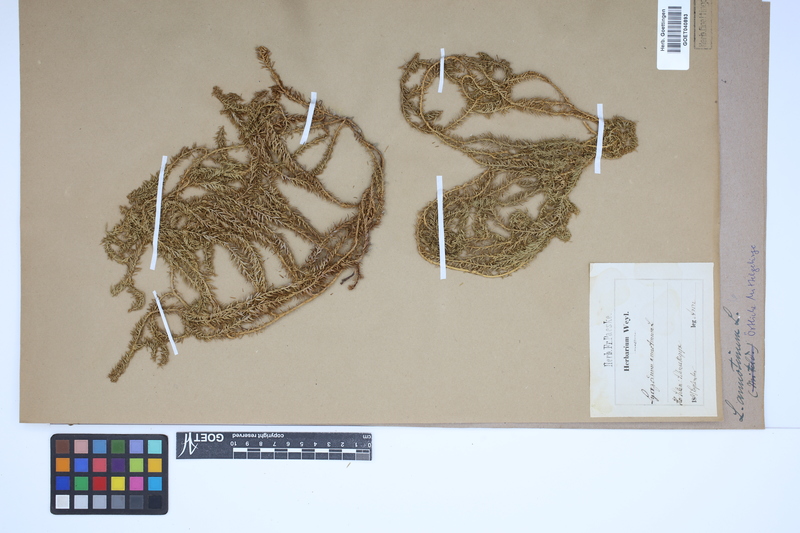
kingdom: Plantae
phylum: Tracheophyta
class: Lycopodiopsida
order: Lycopodiales
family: Lycopodiaceae
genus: Spinulum
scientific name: Spinulum annotinum
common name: Interrupted club-moss
